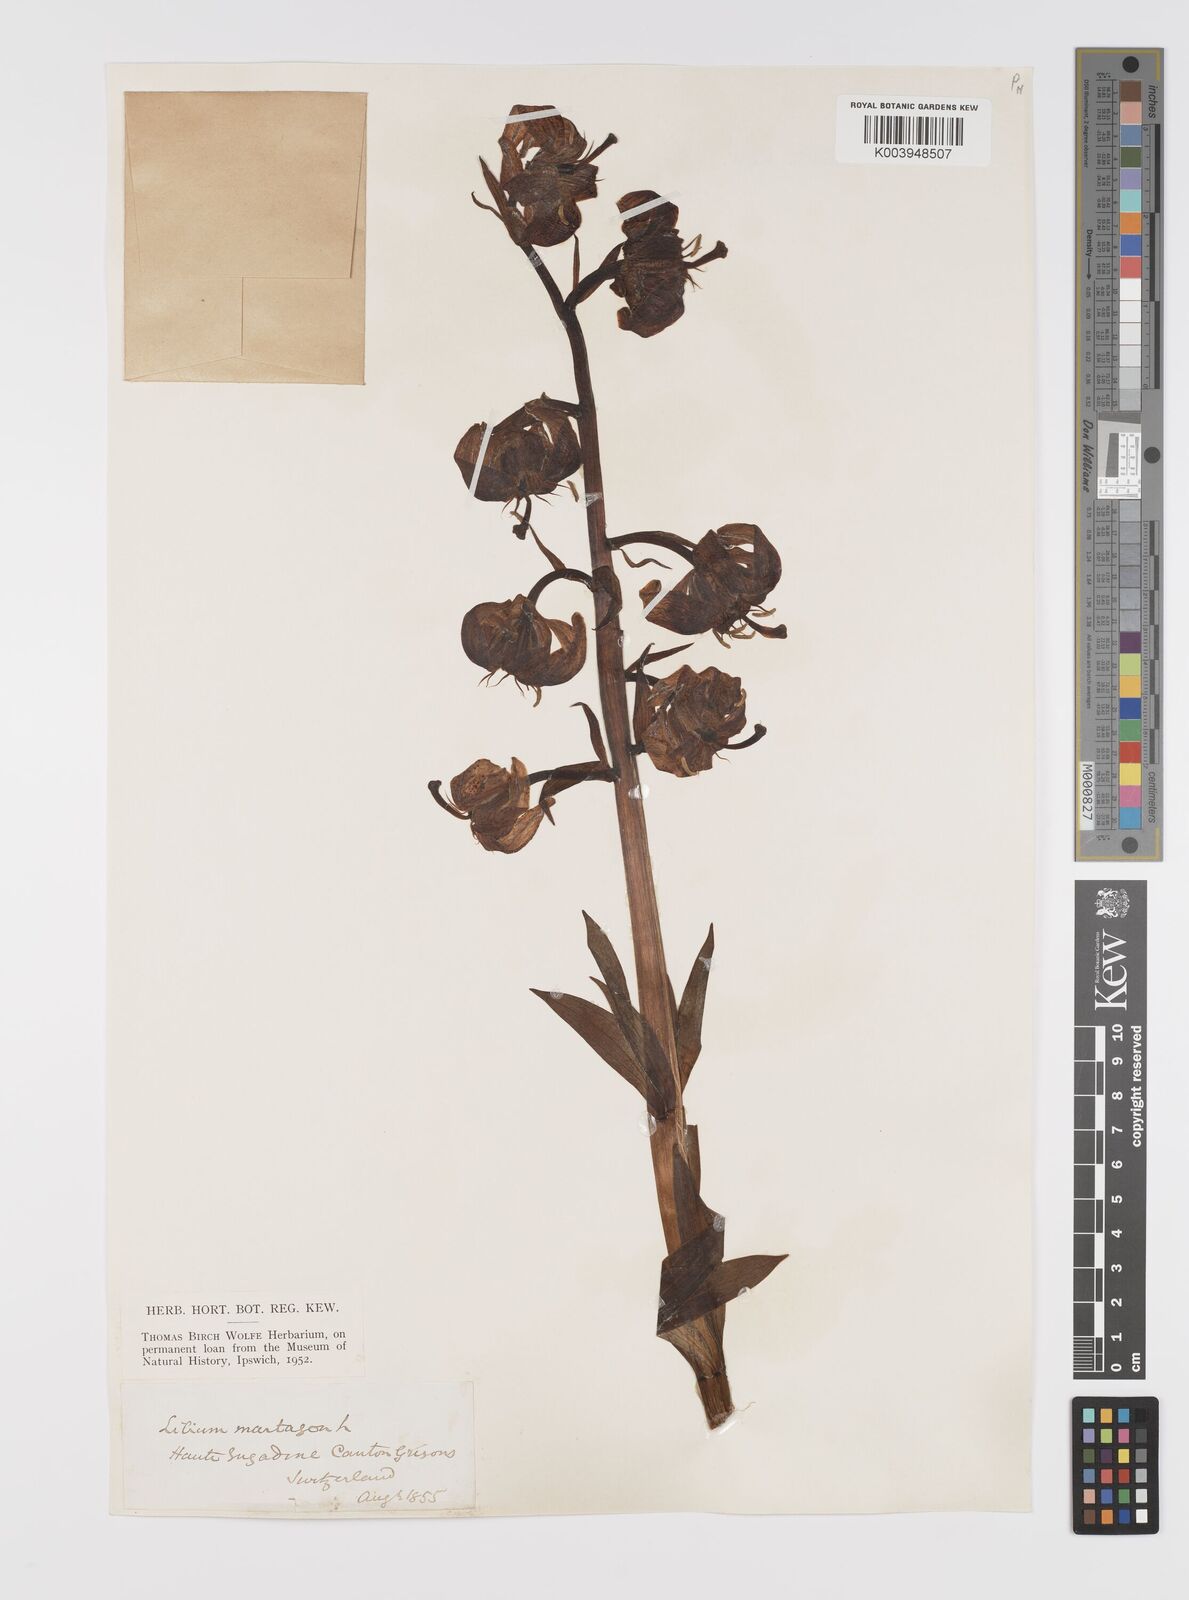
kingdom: Plantae
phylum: Tracheophyta
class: Liliopsida
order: Liliales
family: Liliaceae
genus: Lilium
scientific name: Lilium martagon
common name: Martagon lily
